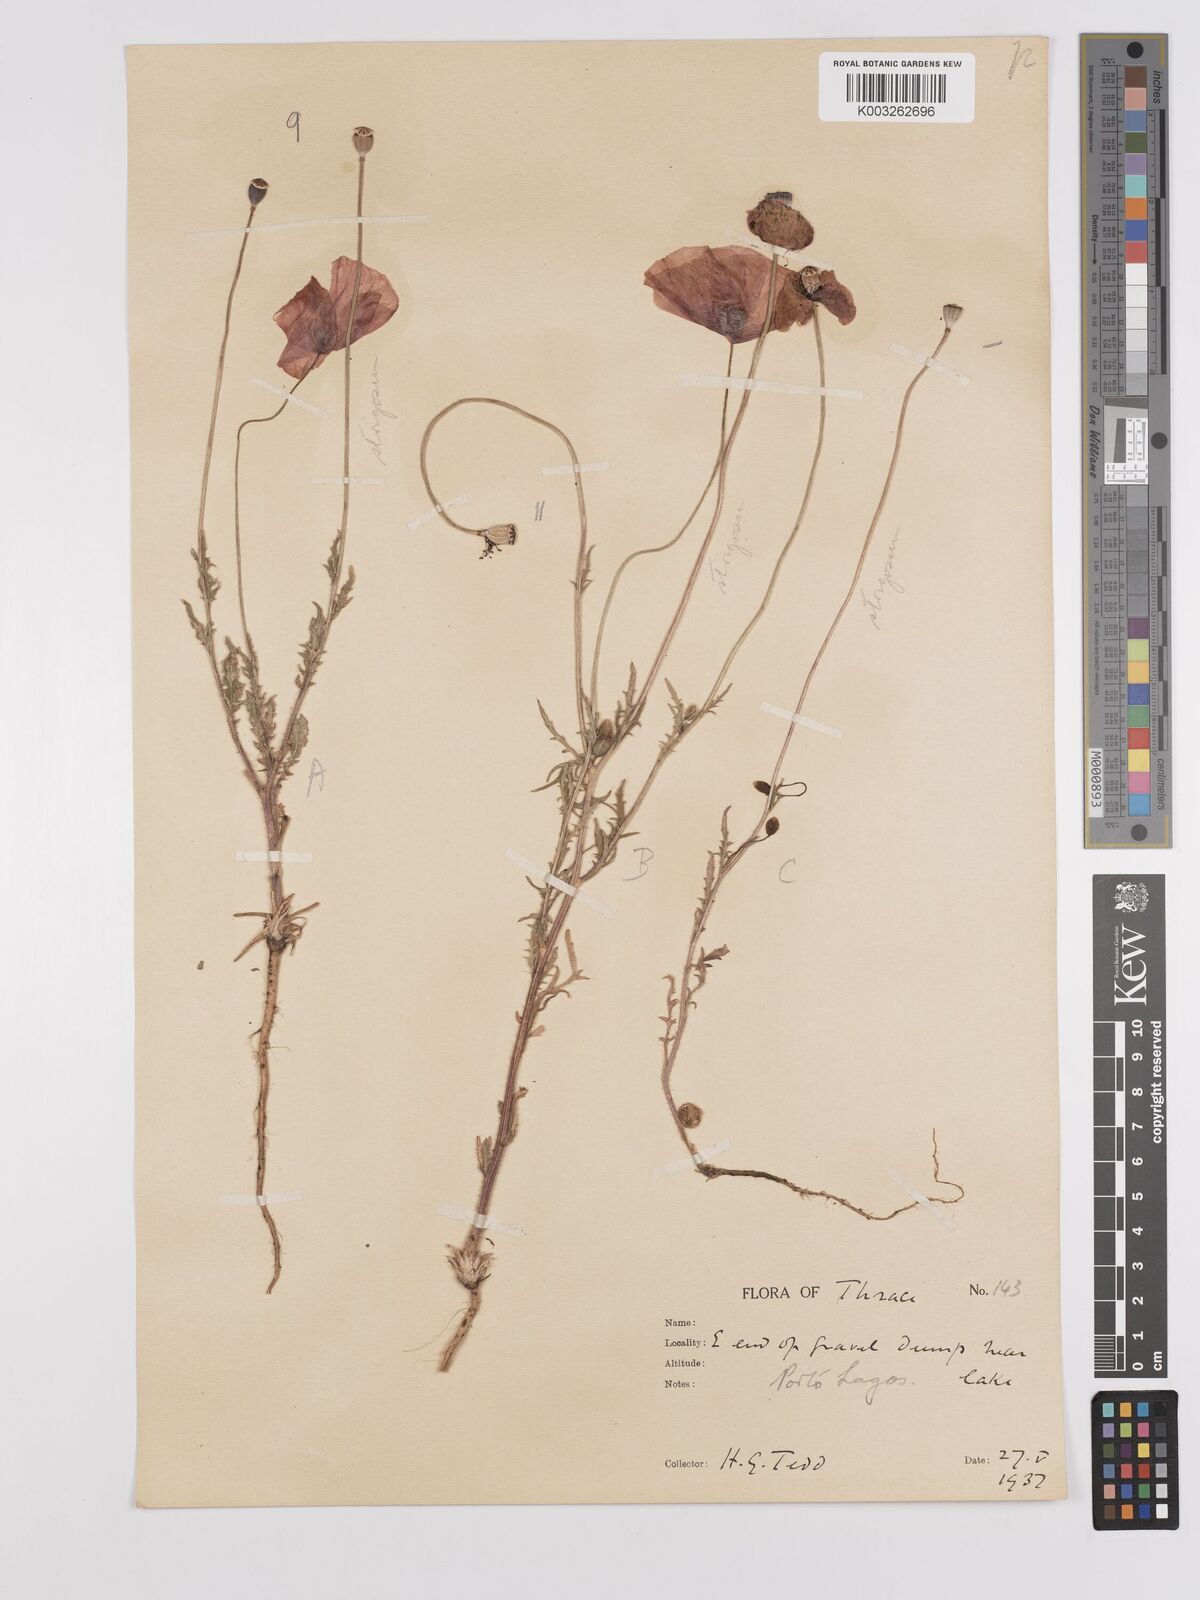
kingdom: Plantae
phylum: Tracheophyta
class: Magnoliopsida
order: Ranunculales
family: Papaveraceae
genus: Papaver
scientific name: Papaver
